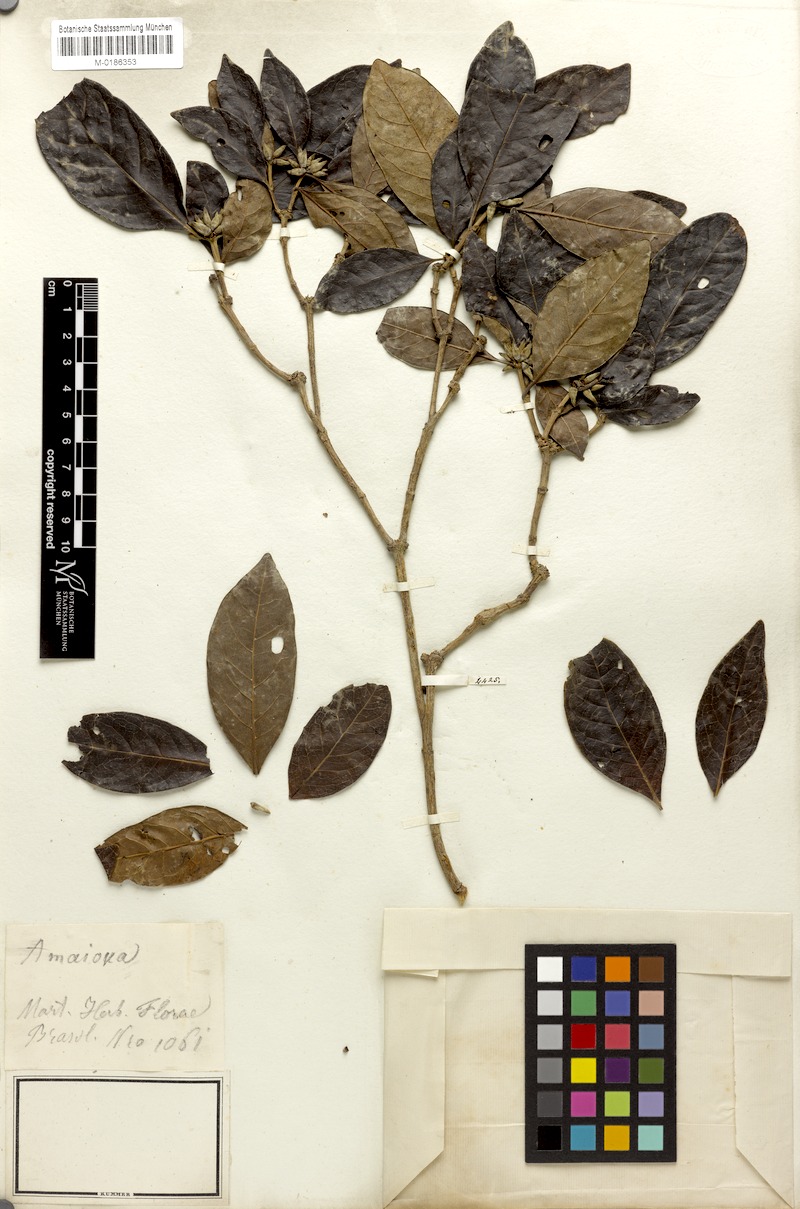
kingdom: Plantae
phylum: Tracheophyta
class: Magnoliopsida
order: Gentianales
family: Rubiaceae
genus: Cordiera
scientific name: Cordiera elliptica
